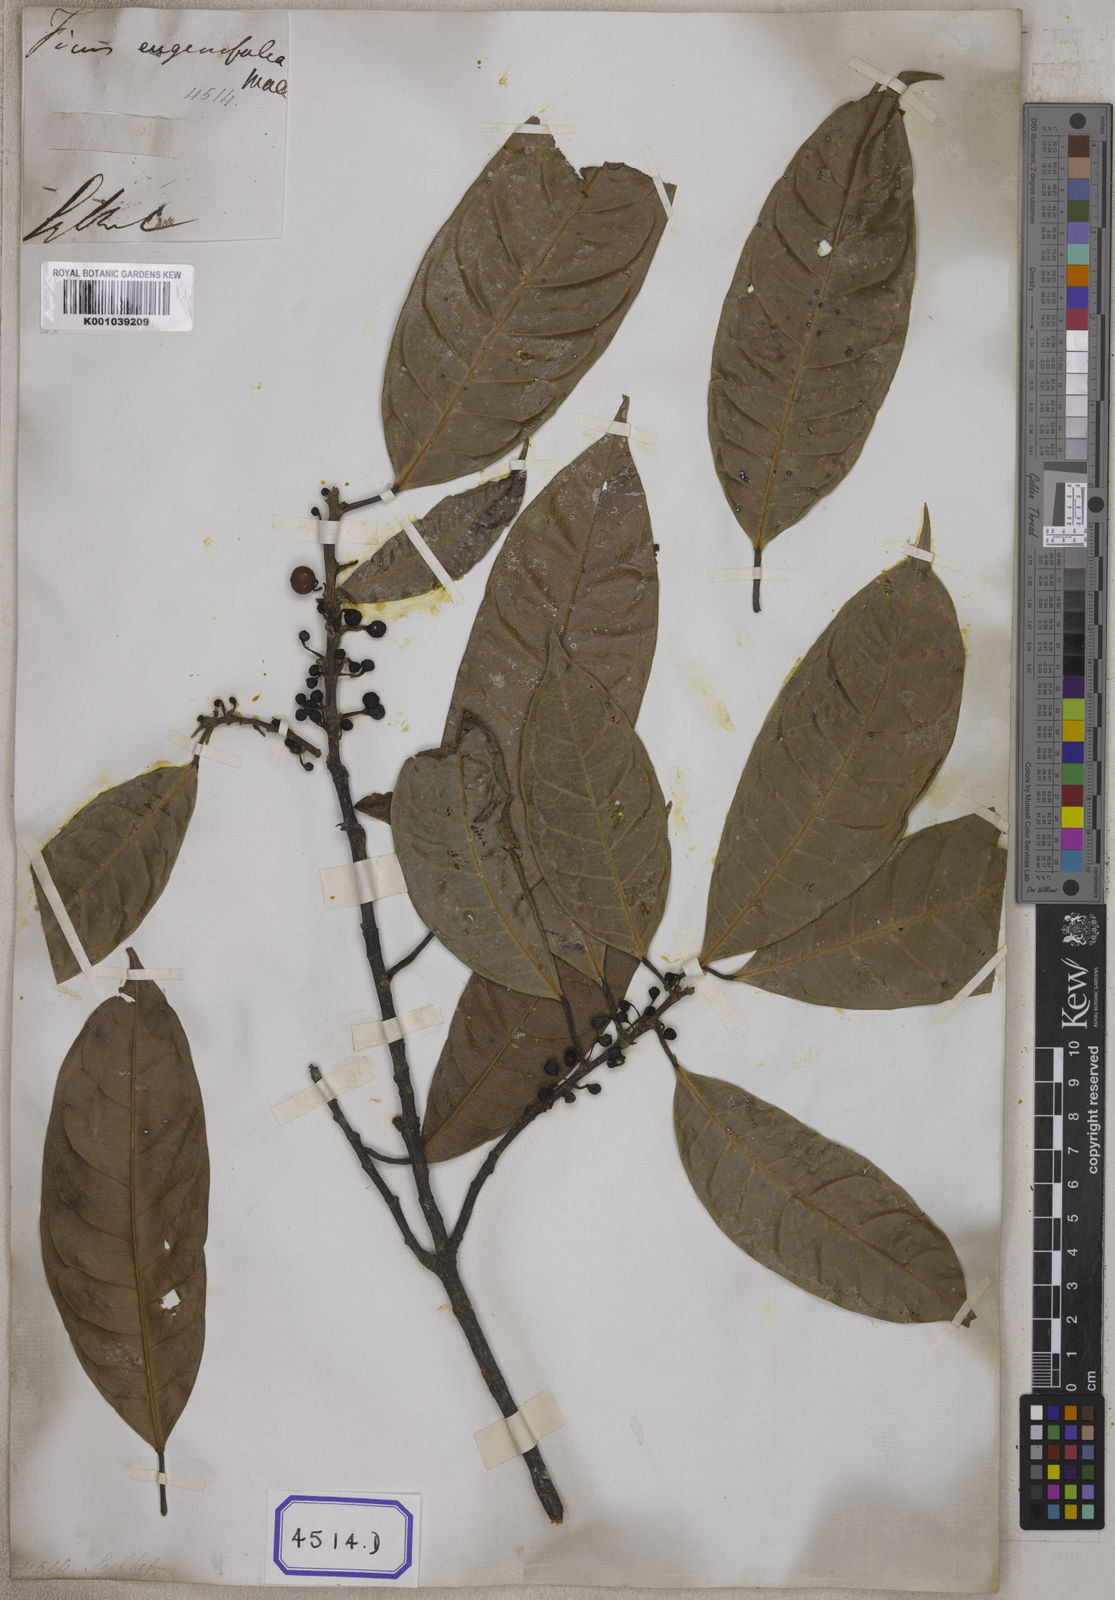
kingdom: Plantae
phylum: Tracheophyta
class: Magnoliopsida
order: Rosales
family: Moraceae
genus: Ficus
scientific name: Ficus
